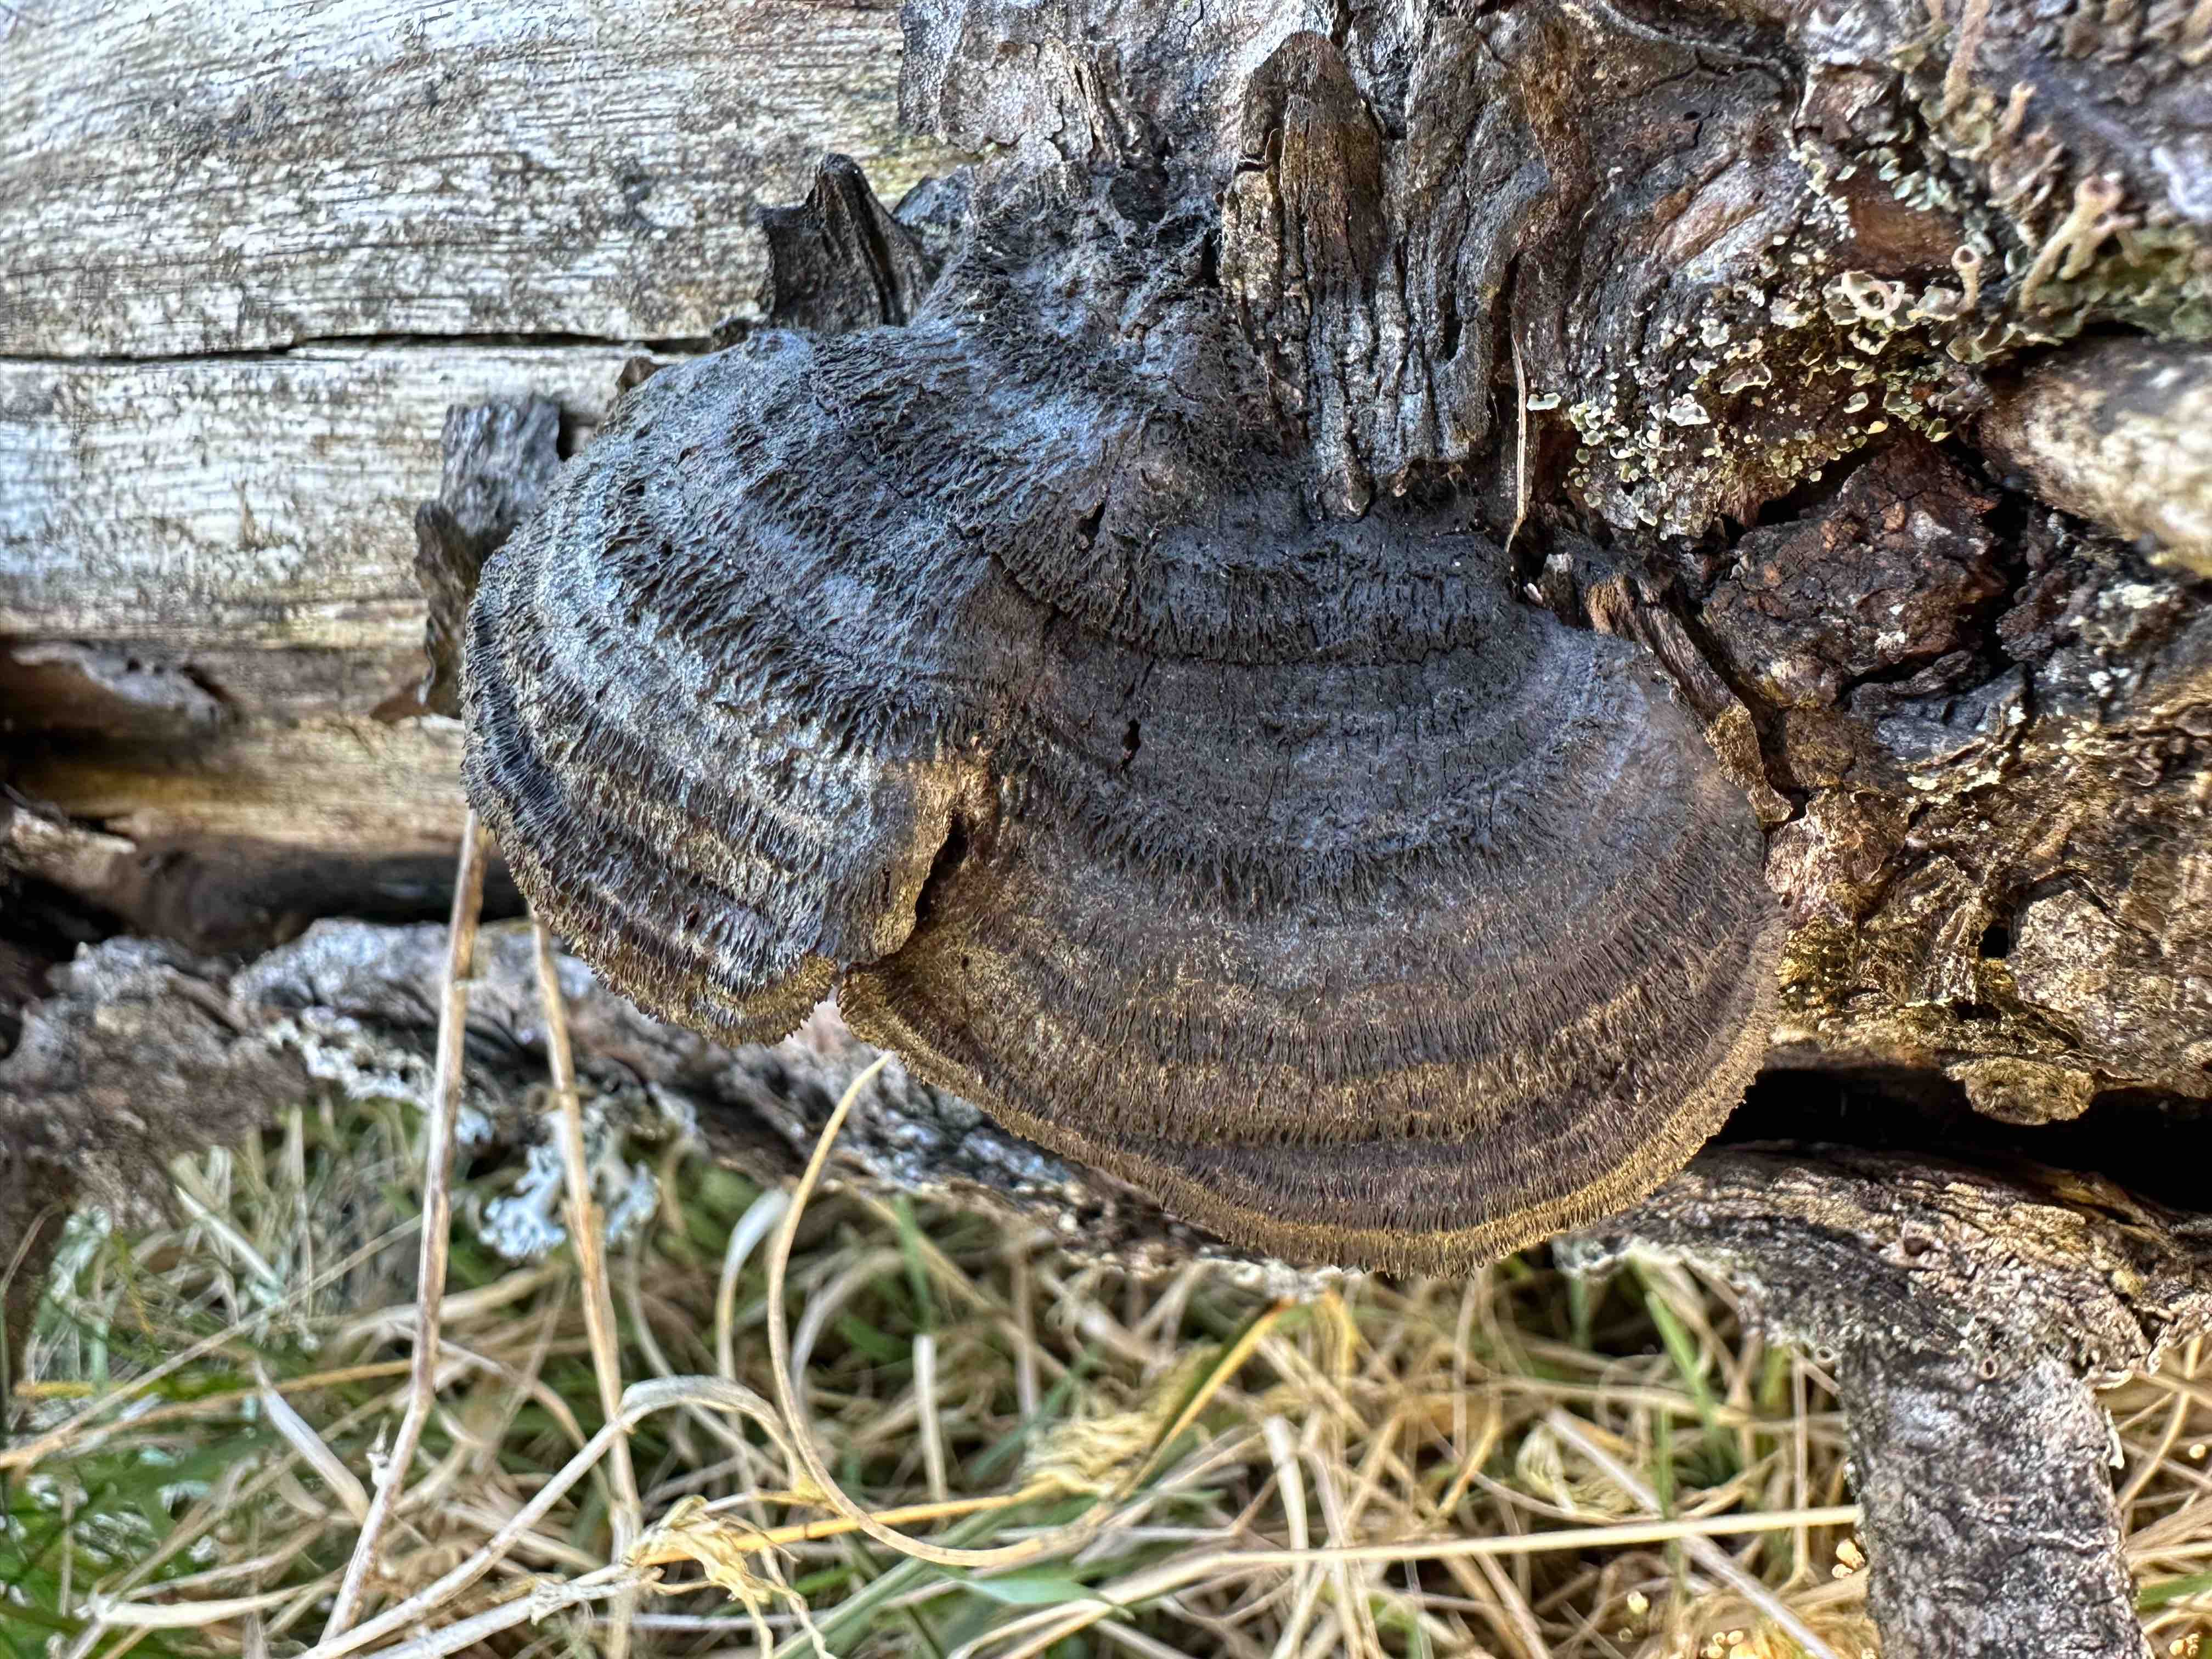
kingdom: Fungi
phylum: Basidiomycota
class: Agaricomycetes
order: Gloeophyllales
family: Gloeophyllaceae
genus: Gloeophyllum
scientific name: Gloeophyllum sepiarium
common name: fyrre-korkhat
